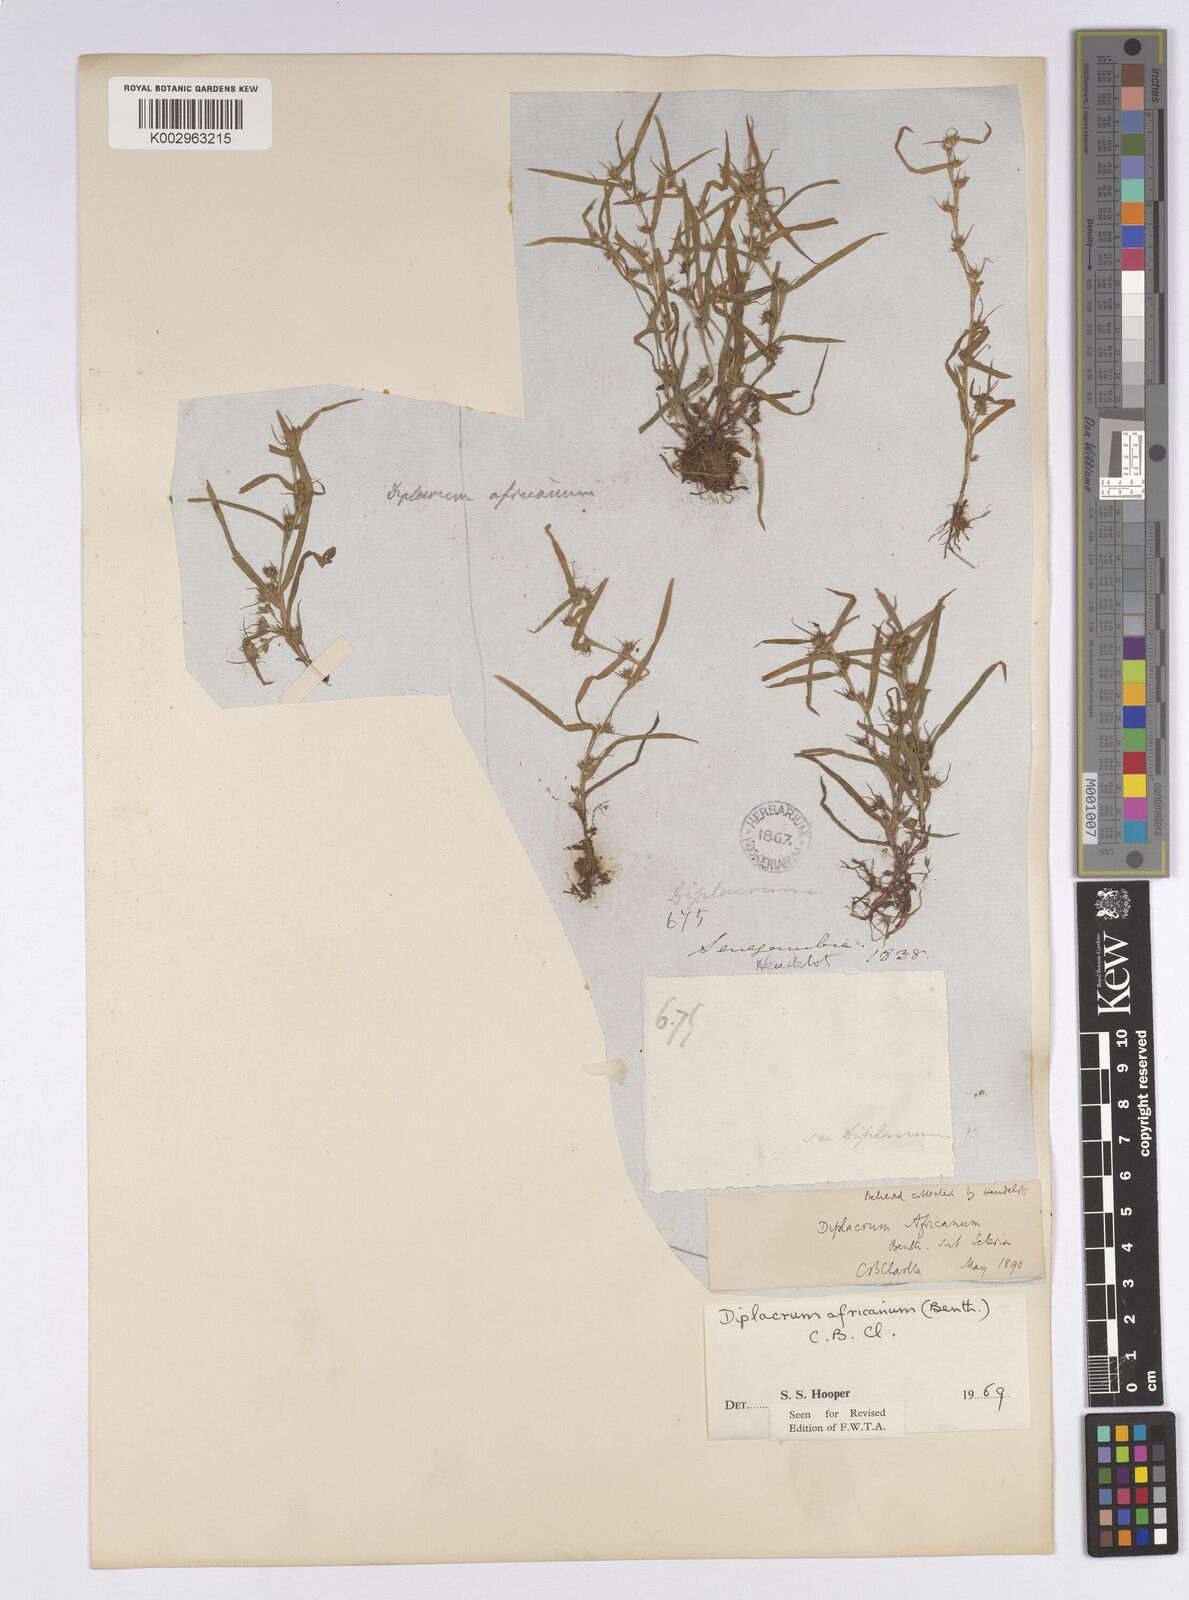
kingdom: Plantae
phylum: Tracheophyta
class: Liliopsida
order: Poales
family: Cyperaceae
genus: Diplacrum
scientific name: Diplacrum africanum
